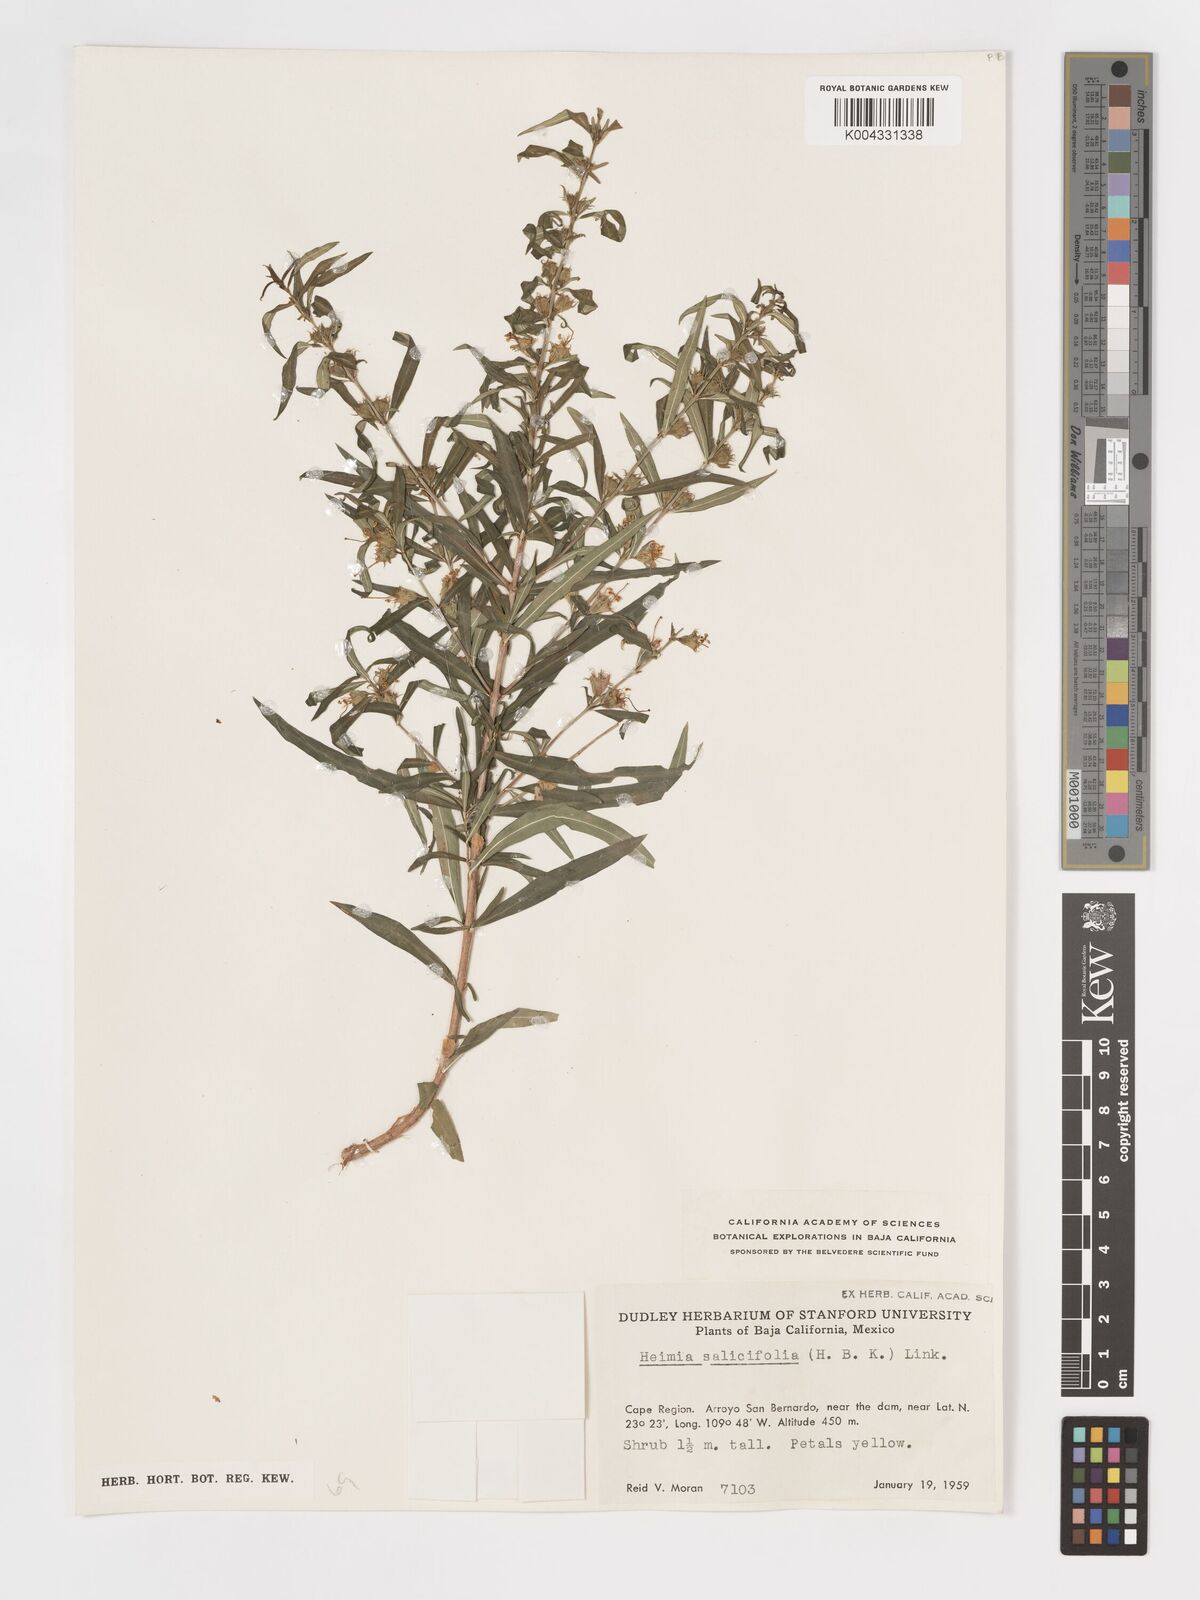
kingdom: Plantae
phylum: Tracheophyta
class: Magnoliopsida
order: Myrtales
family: Lythraceae
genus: Heimia
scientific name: Heimia salicifolia
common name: Willow-leaf heimia
